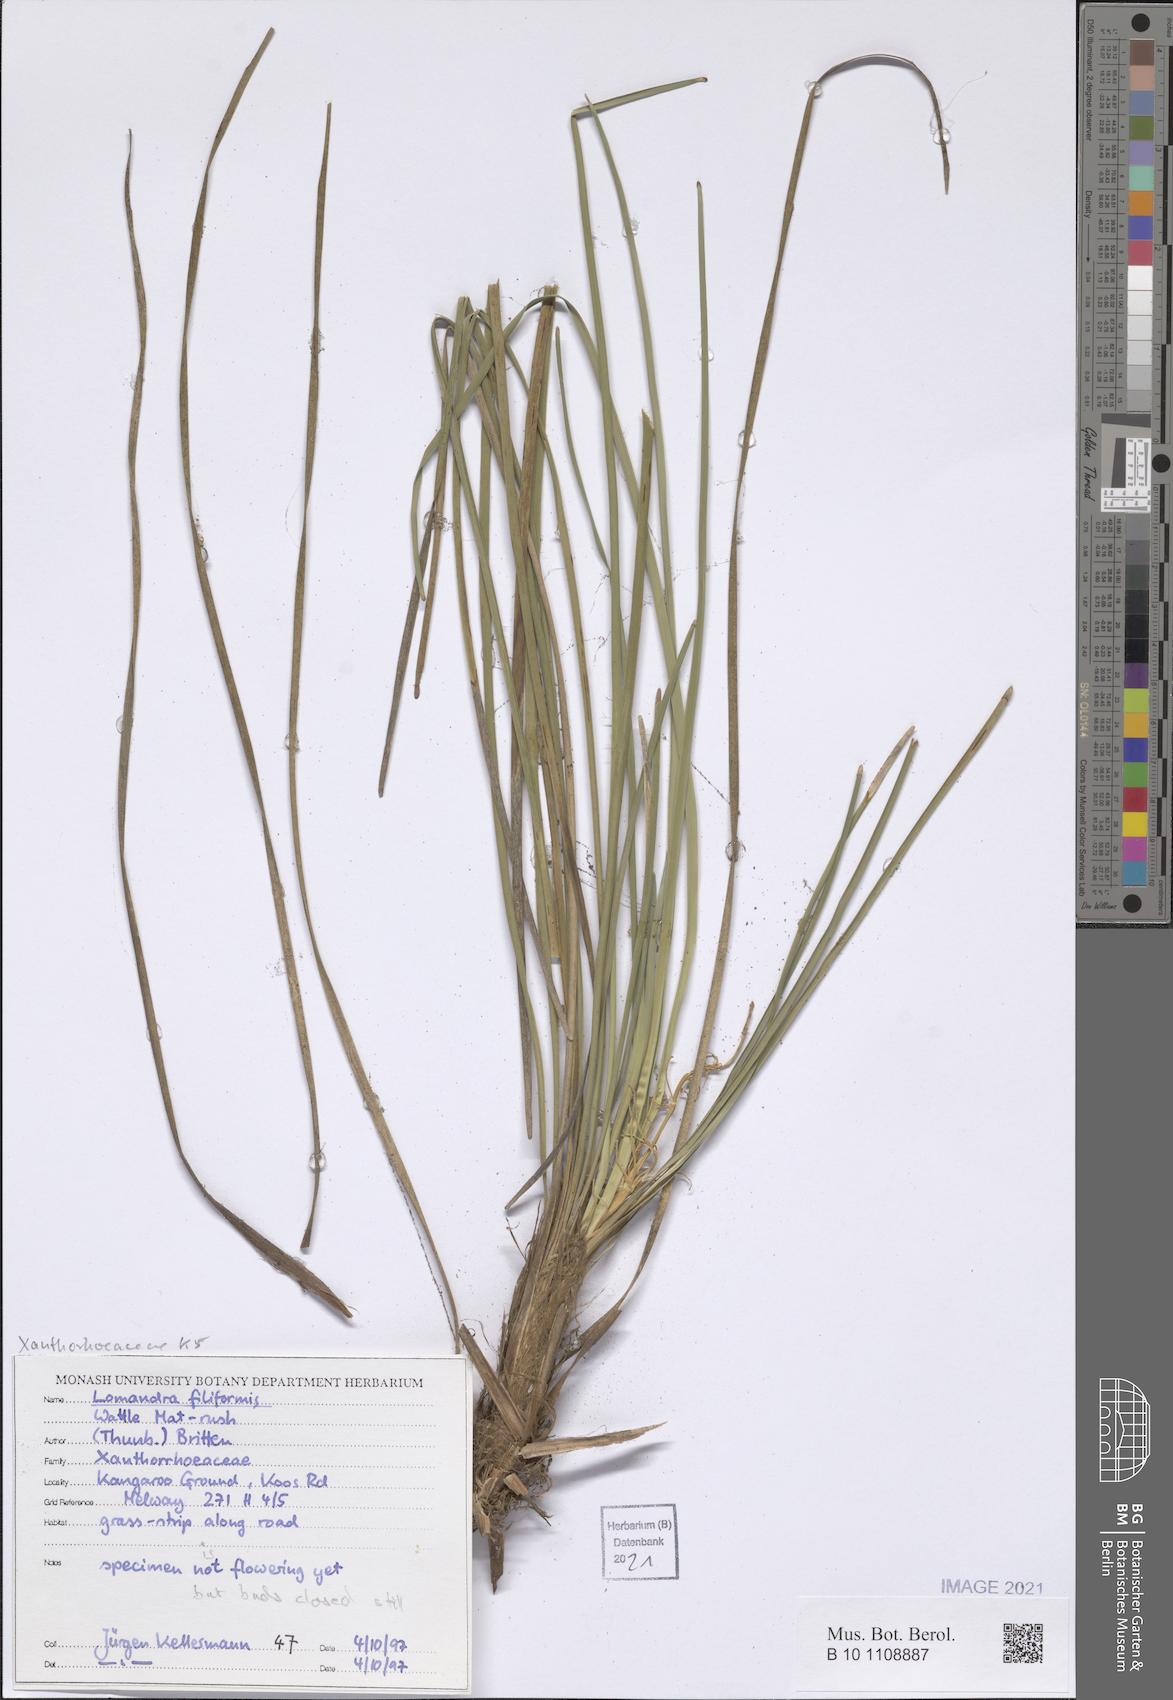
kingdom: Plantae
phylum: Tracheophyta
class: Liliopsida
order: Asparagales
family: Asparagaceae
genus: Lomandra
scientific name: Lomandra filiformis
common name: Wattle mat-rush
